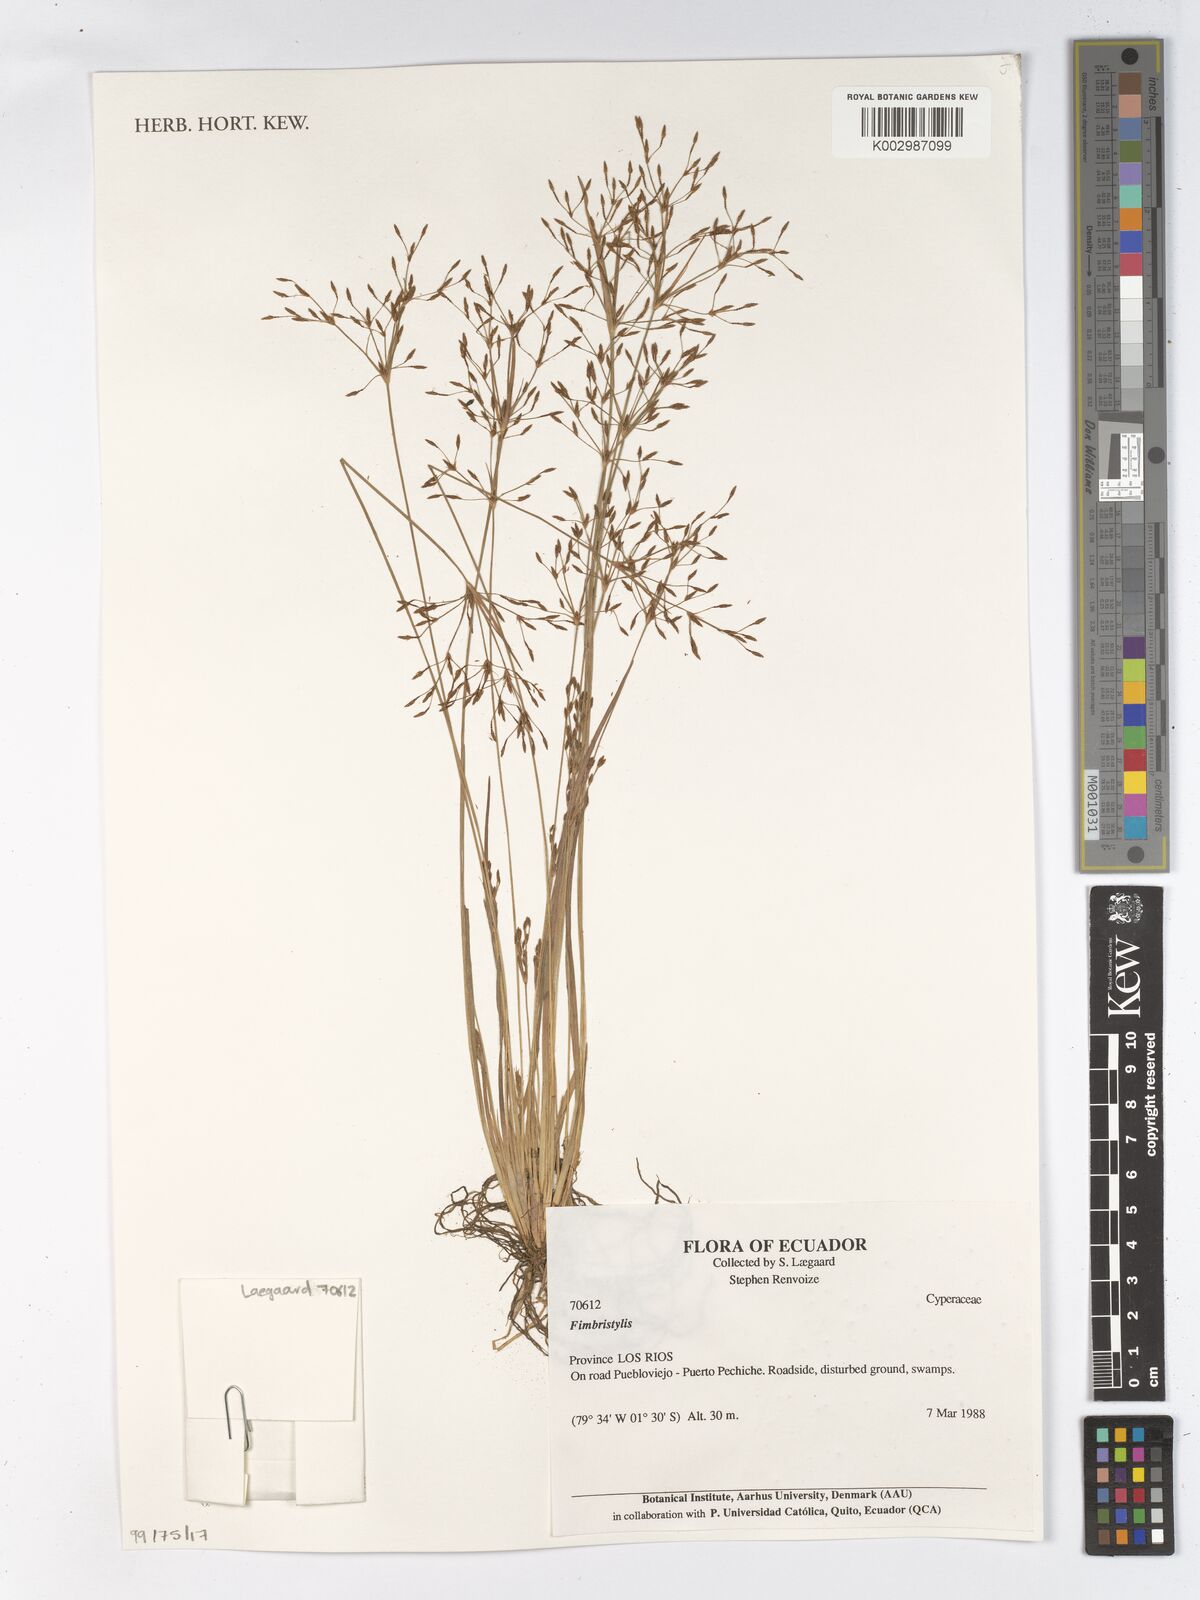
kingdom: Plantae
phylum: Tracheophyta
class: Liliopsida
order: Poales
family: Cyperaceae
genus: Fimbristylis
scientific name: Fimbristylis
